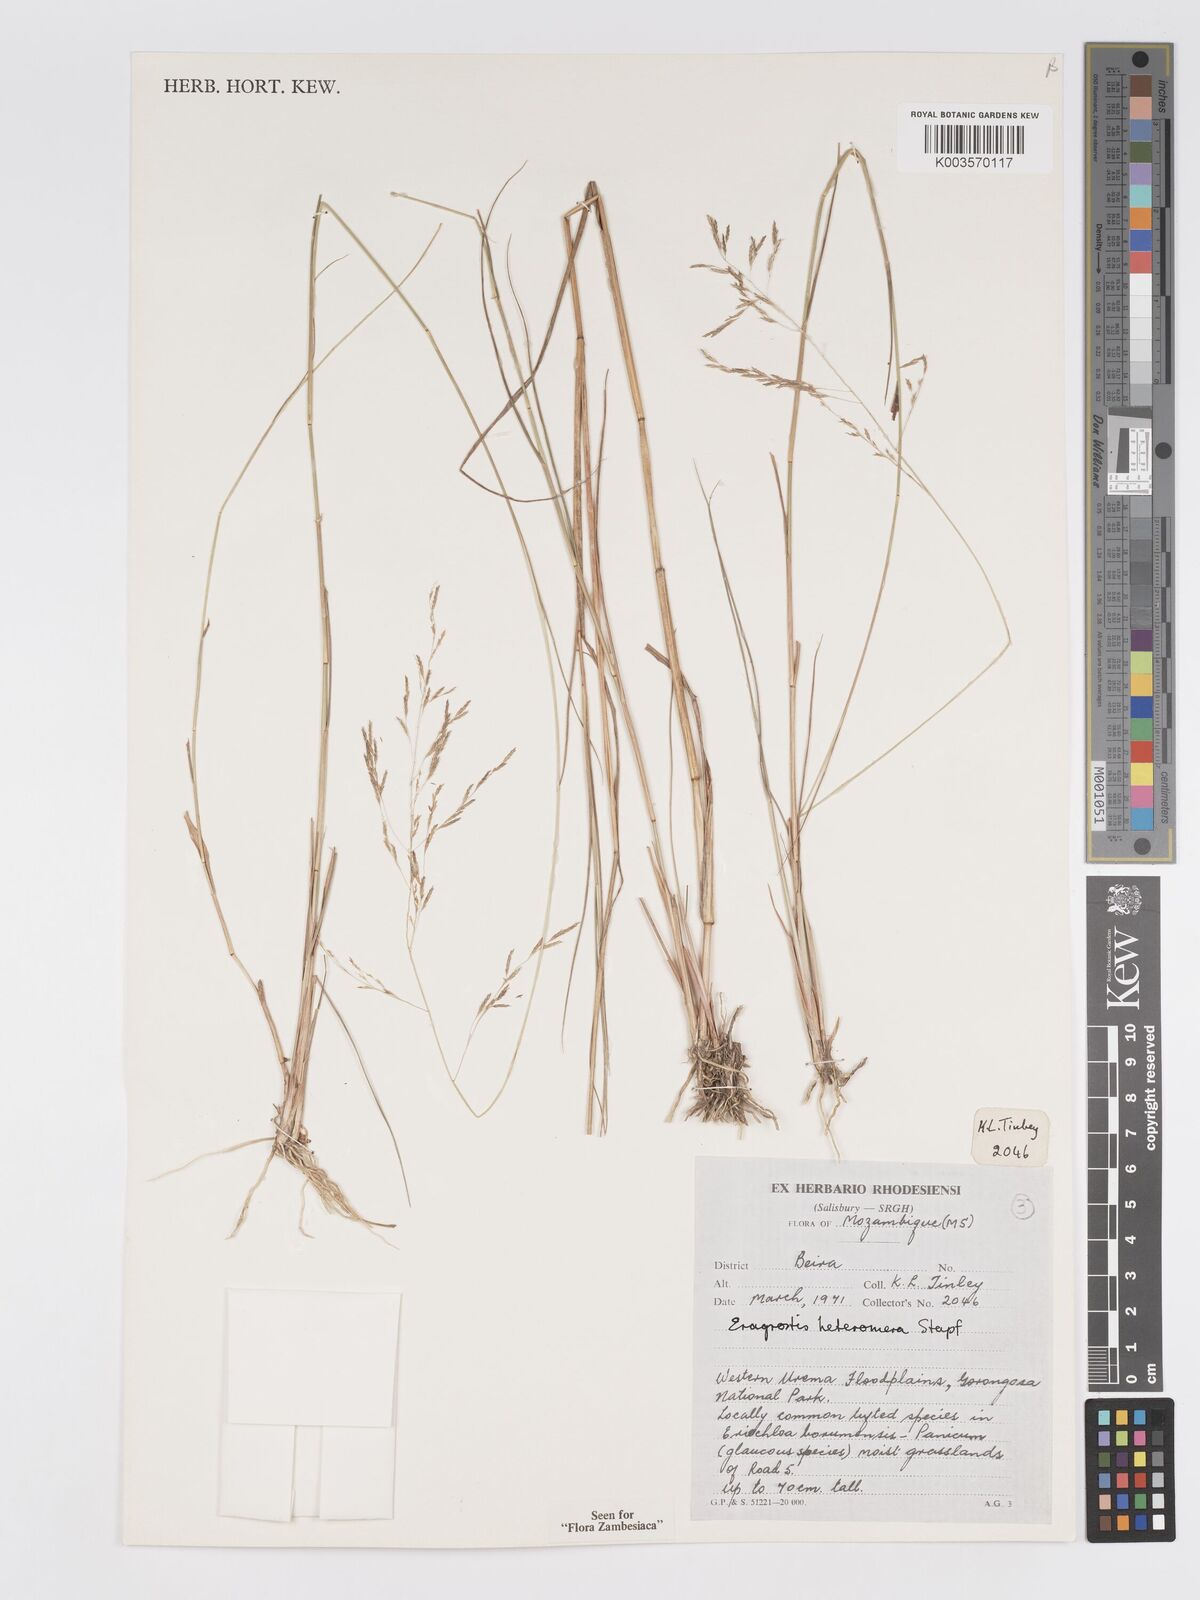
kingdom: Plantae
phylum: Tracheophyta
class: Liliopsida
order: Poales
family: Poaceae
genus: Eragrostis
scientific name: Eragrostis heteromera
